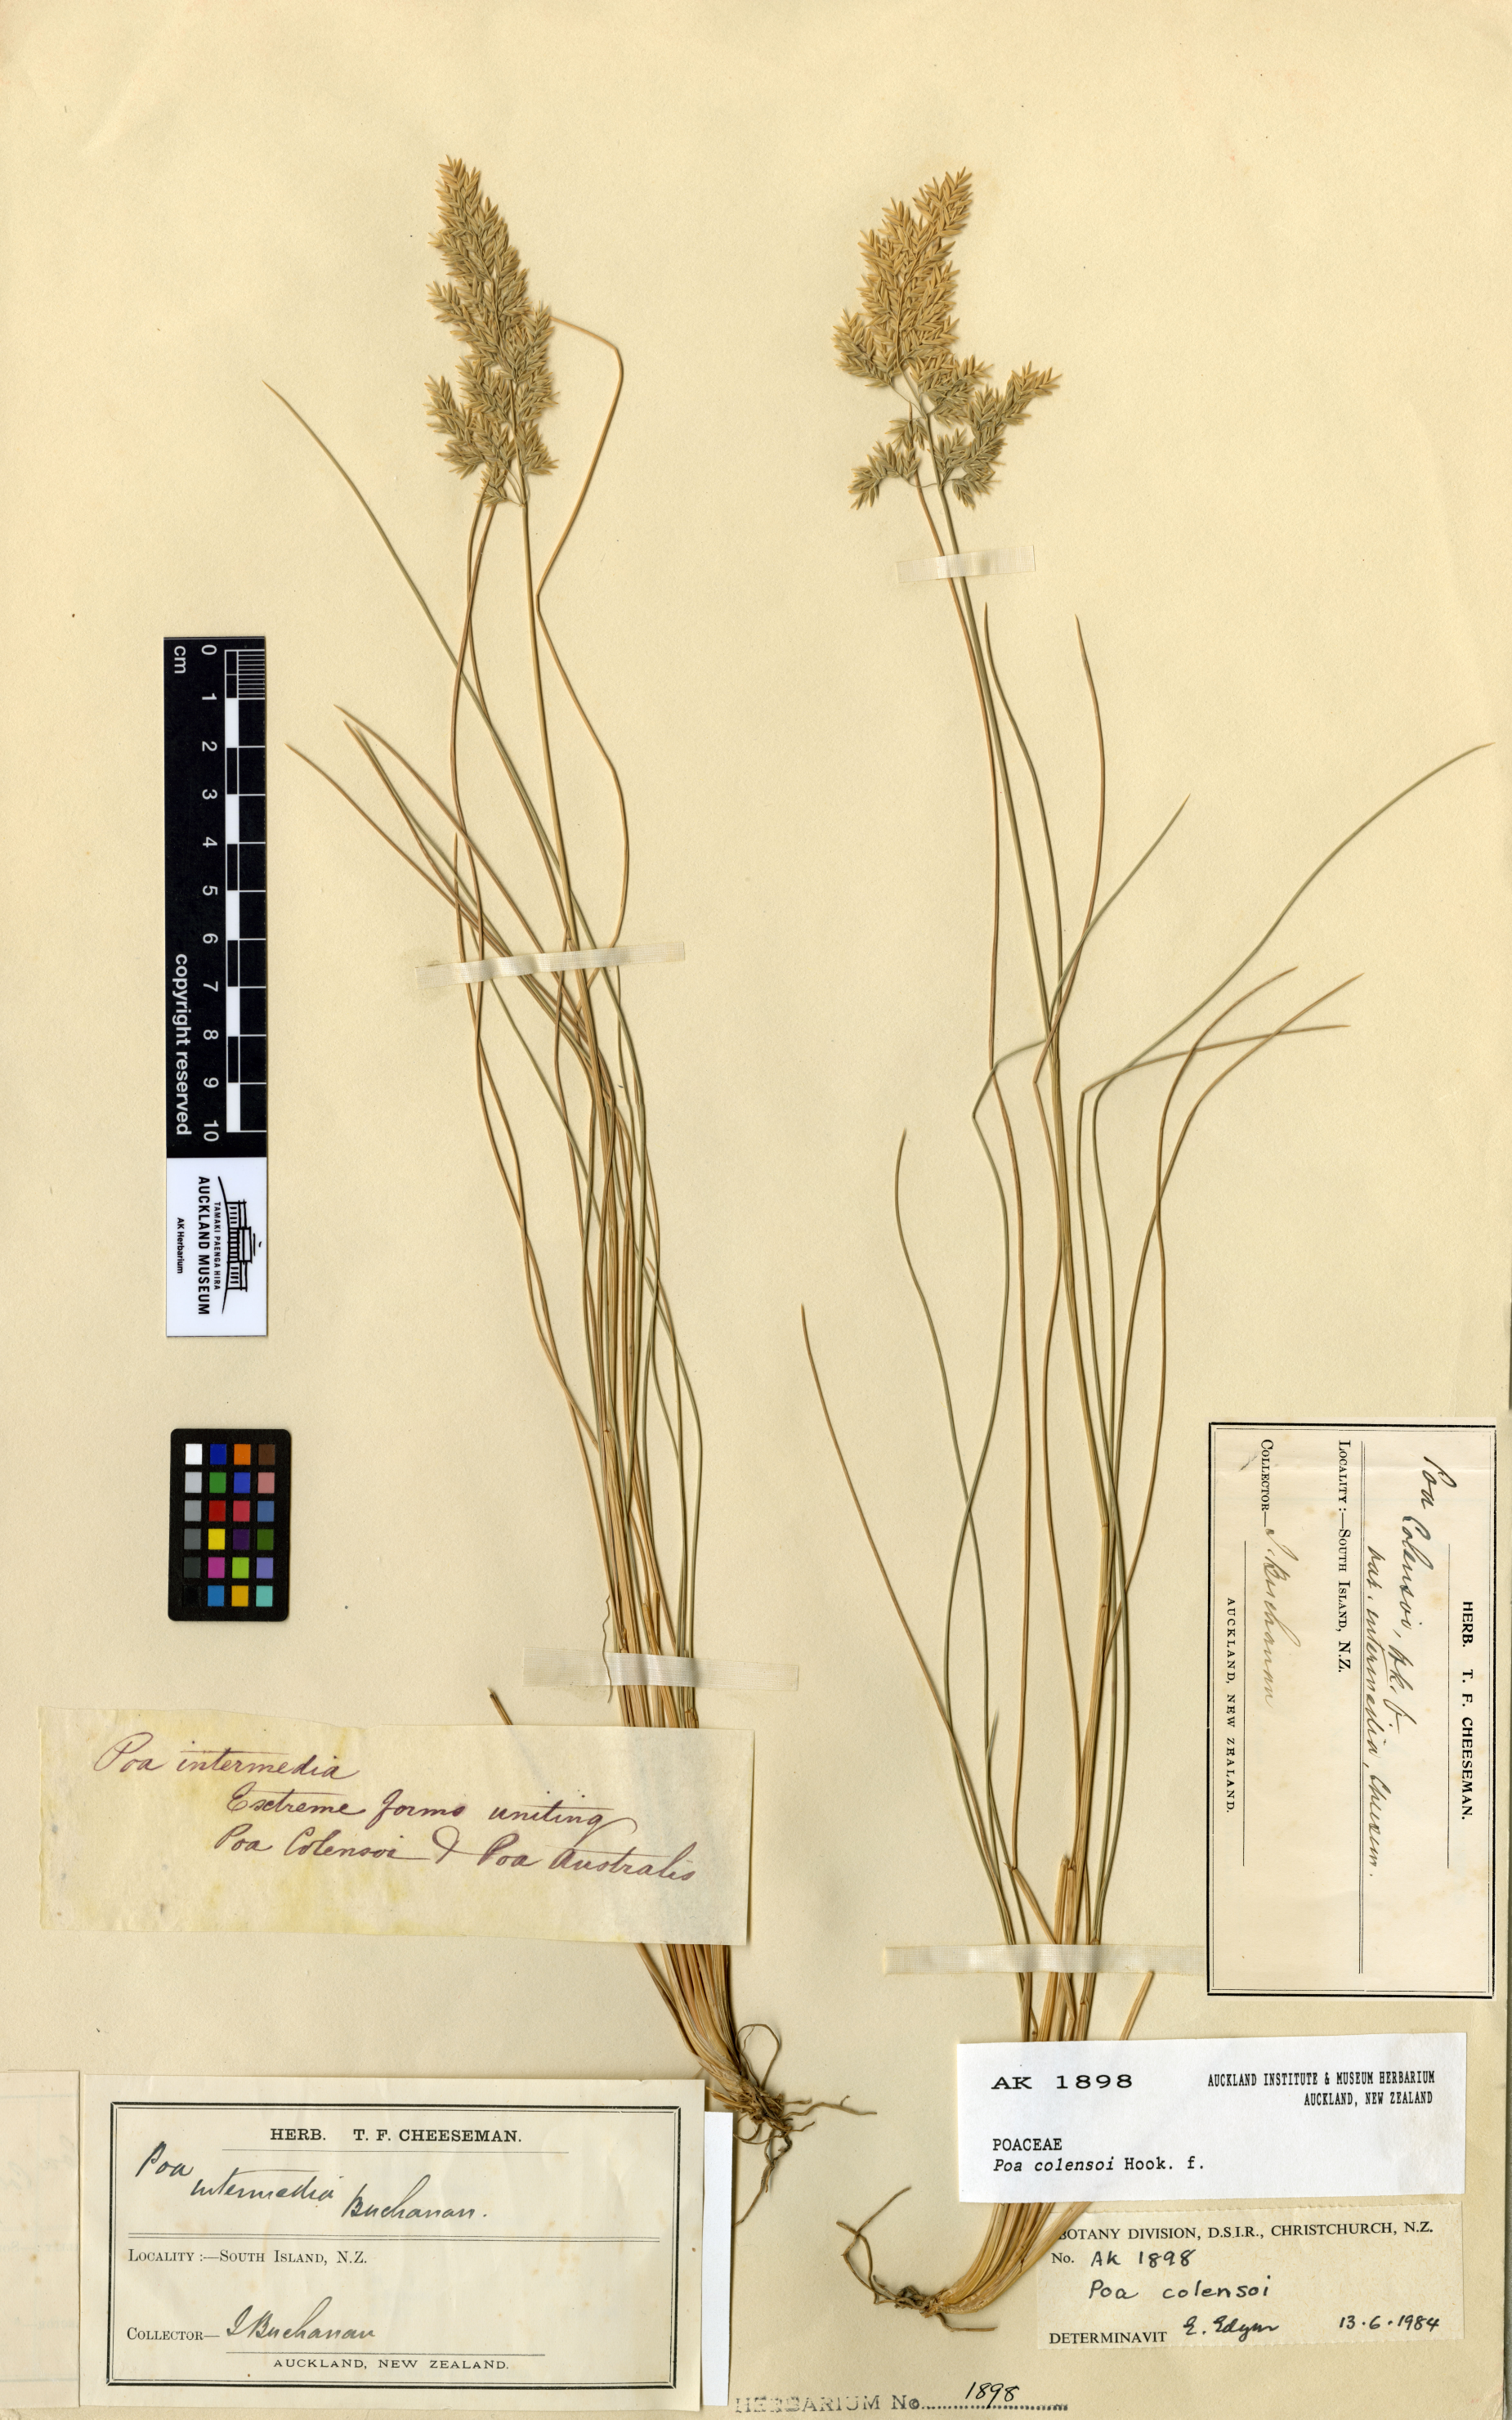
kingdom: Plantae
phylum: Tracheophyta
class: Liliopsida
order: Poales
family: Poaceae
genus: Poa
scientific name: Poa colensoi
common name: Blue tussock
